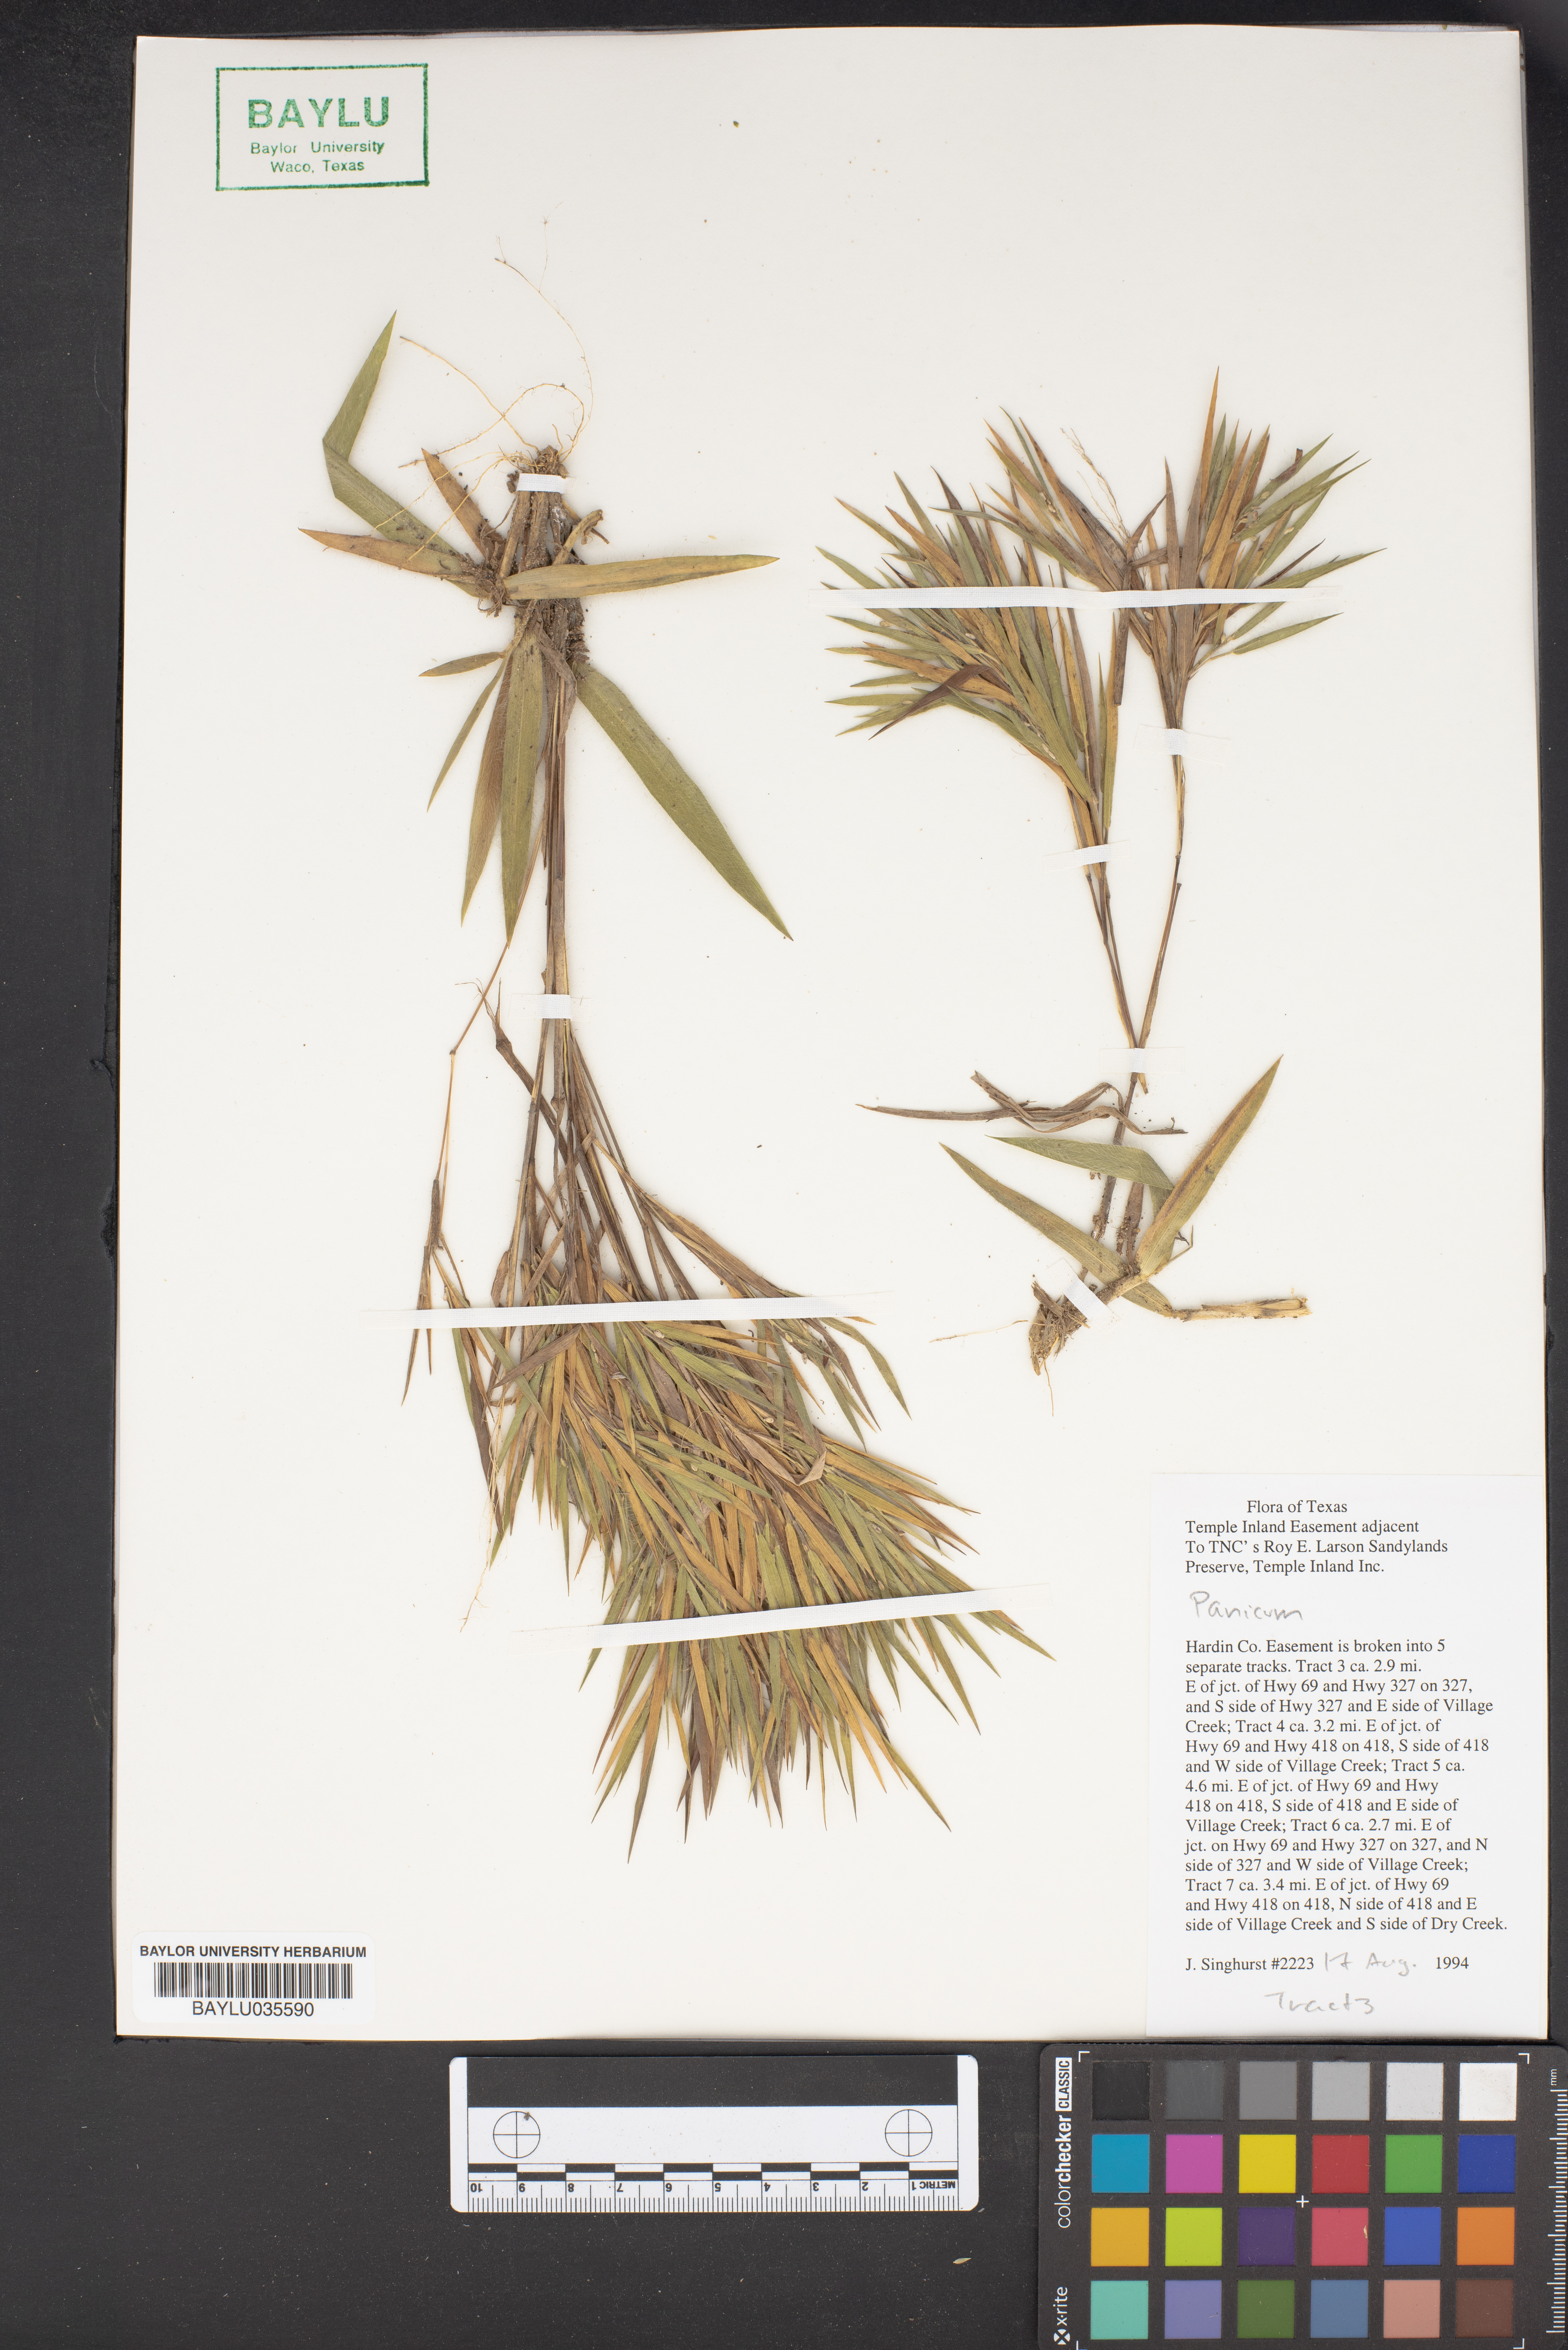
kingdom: Plantae
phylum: Tracheophyta
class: Liliopsida
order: Poales
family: Poaceae
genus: Panicum
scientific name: Panicum
